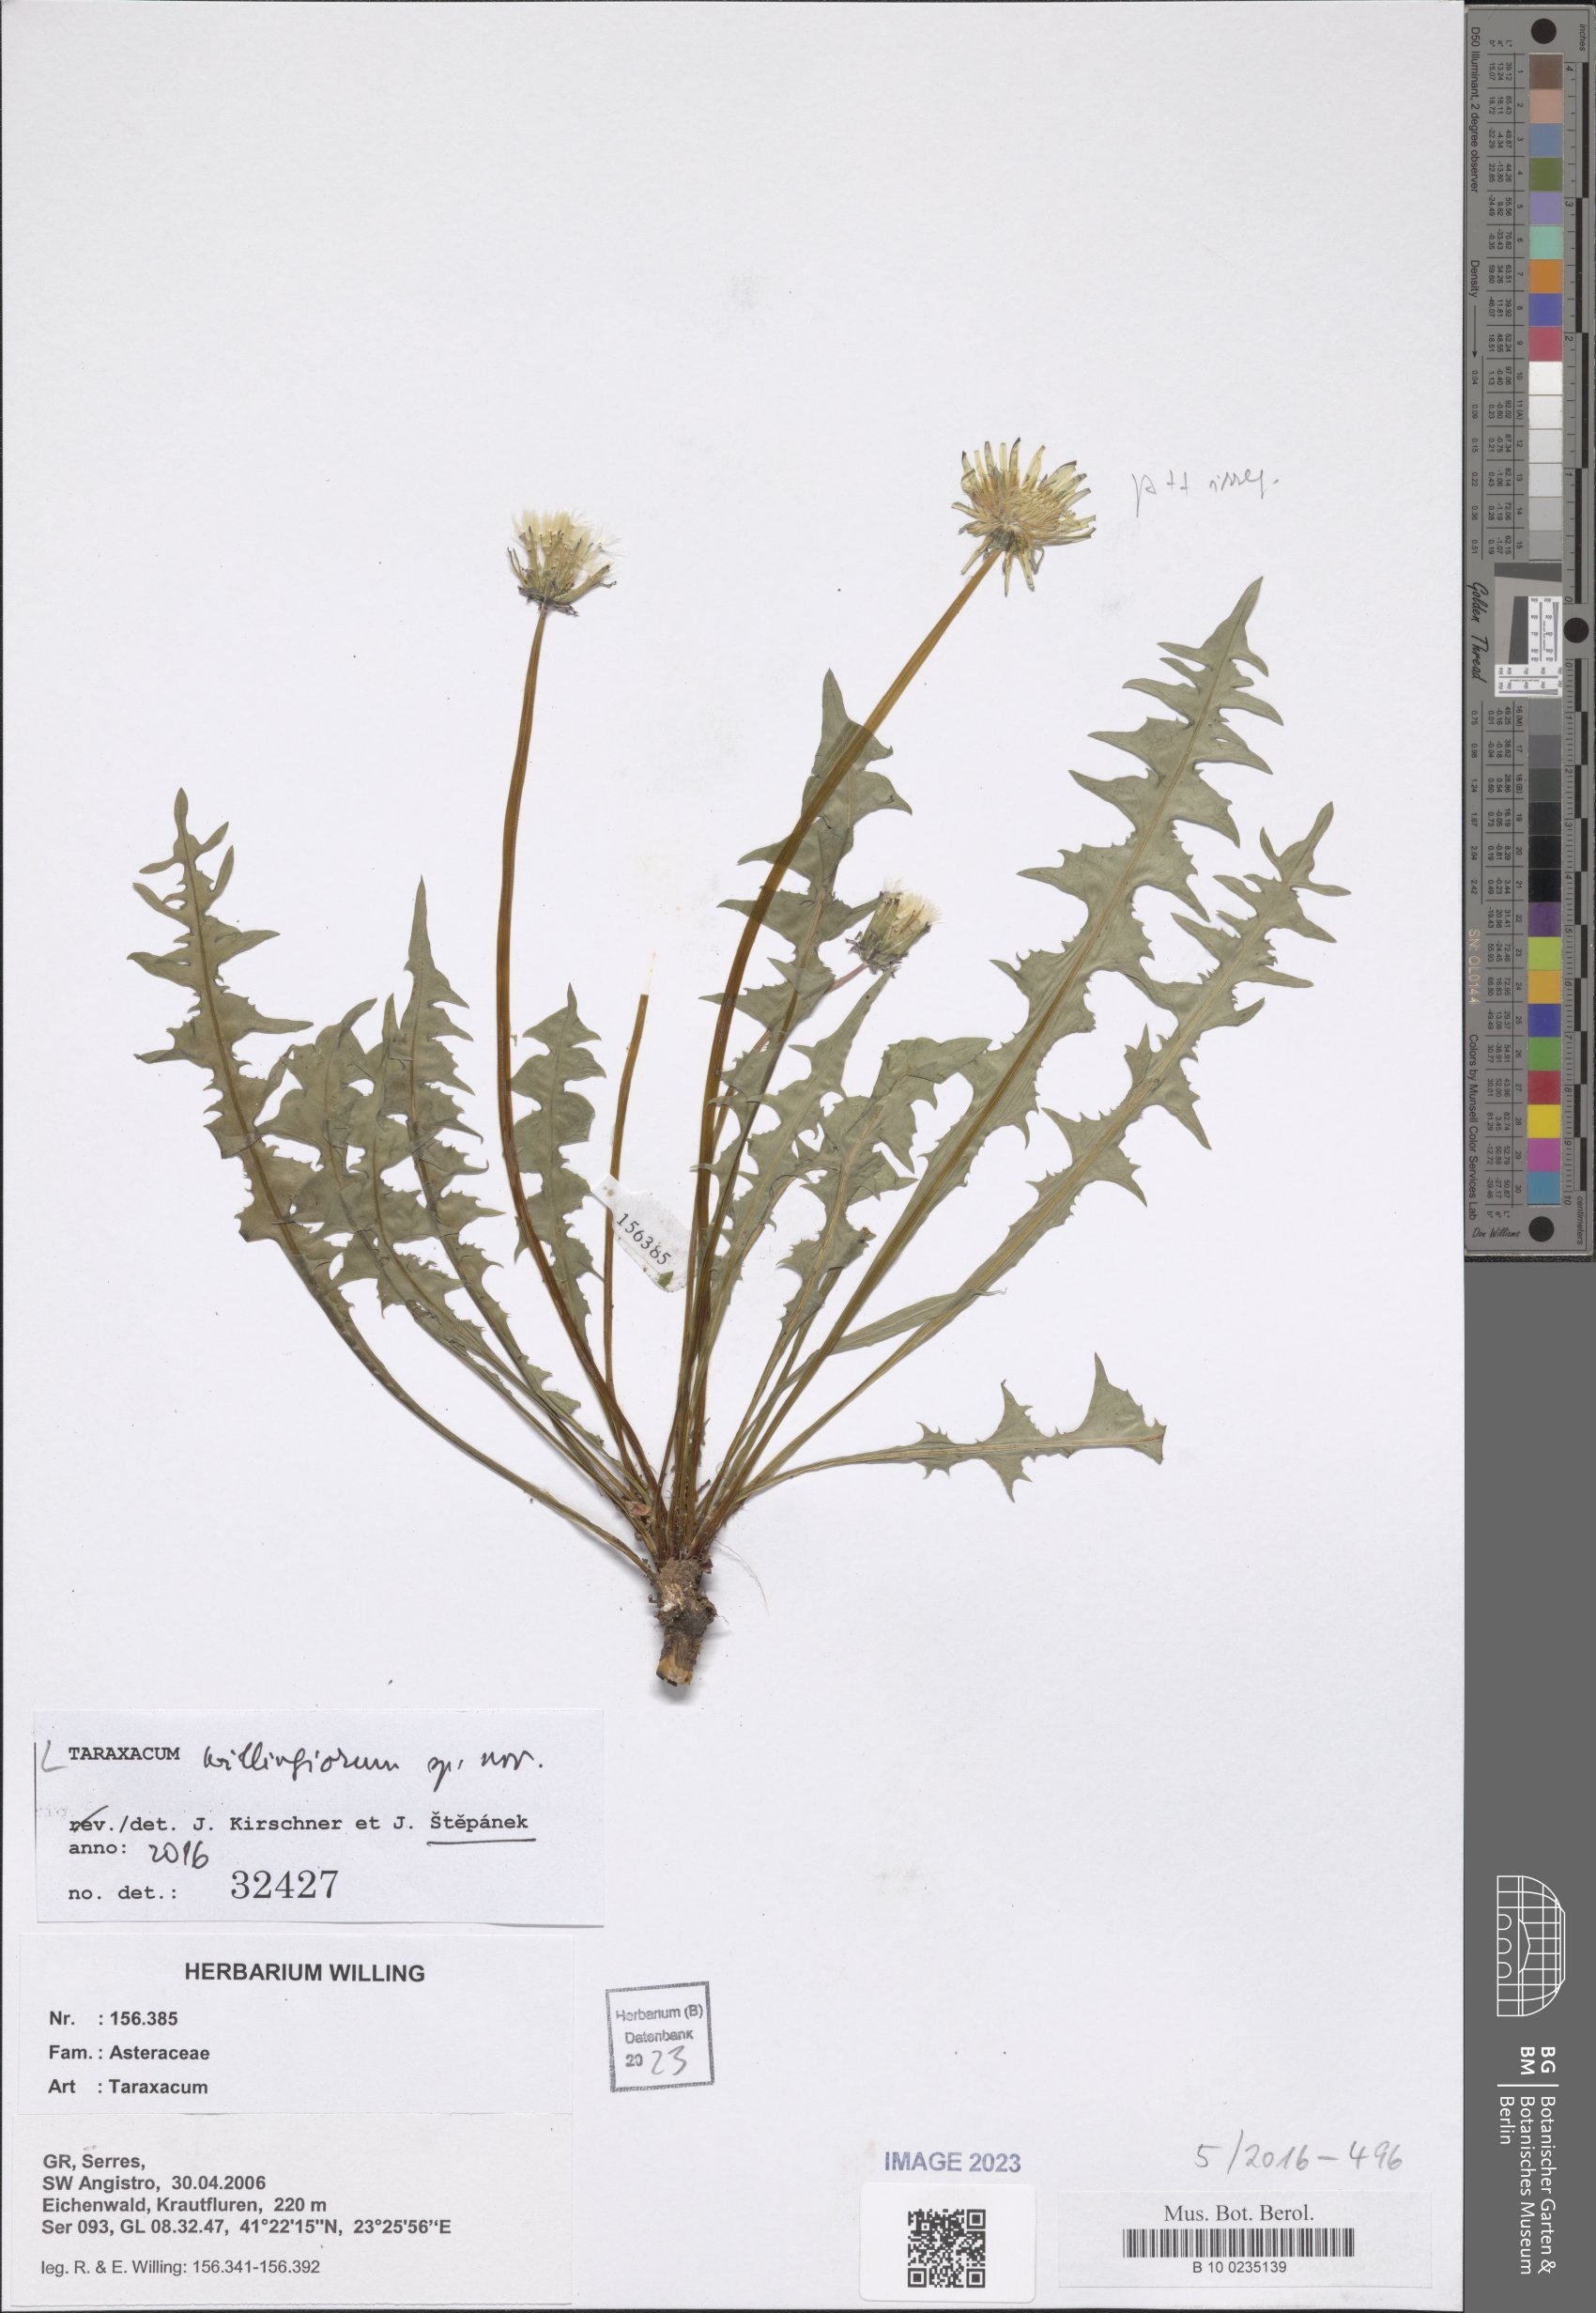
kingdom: Plantae
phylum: Tracheophyta
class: Magnoliopsida
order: Asterales
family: Asteraceae
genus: Taraxacum
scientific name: Taraxacum
